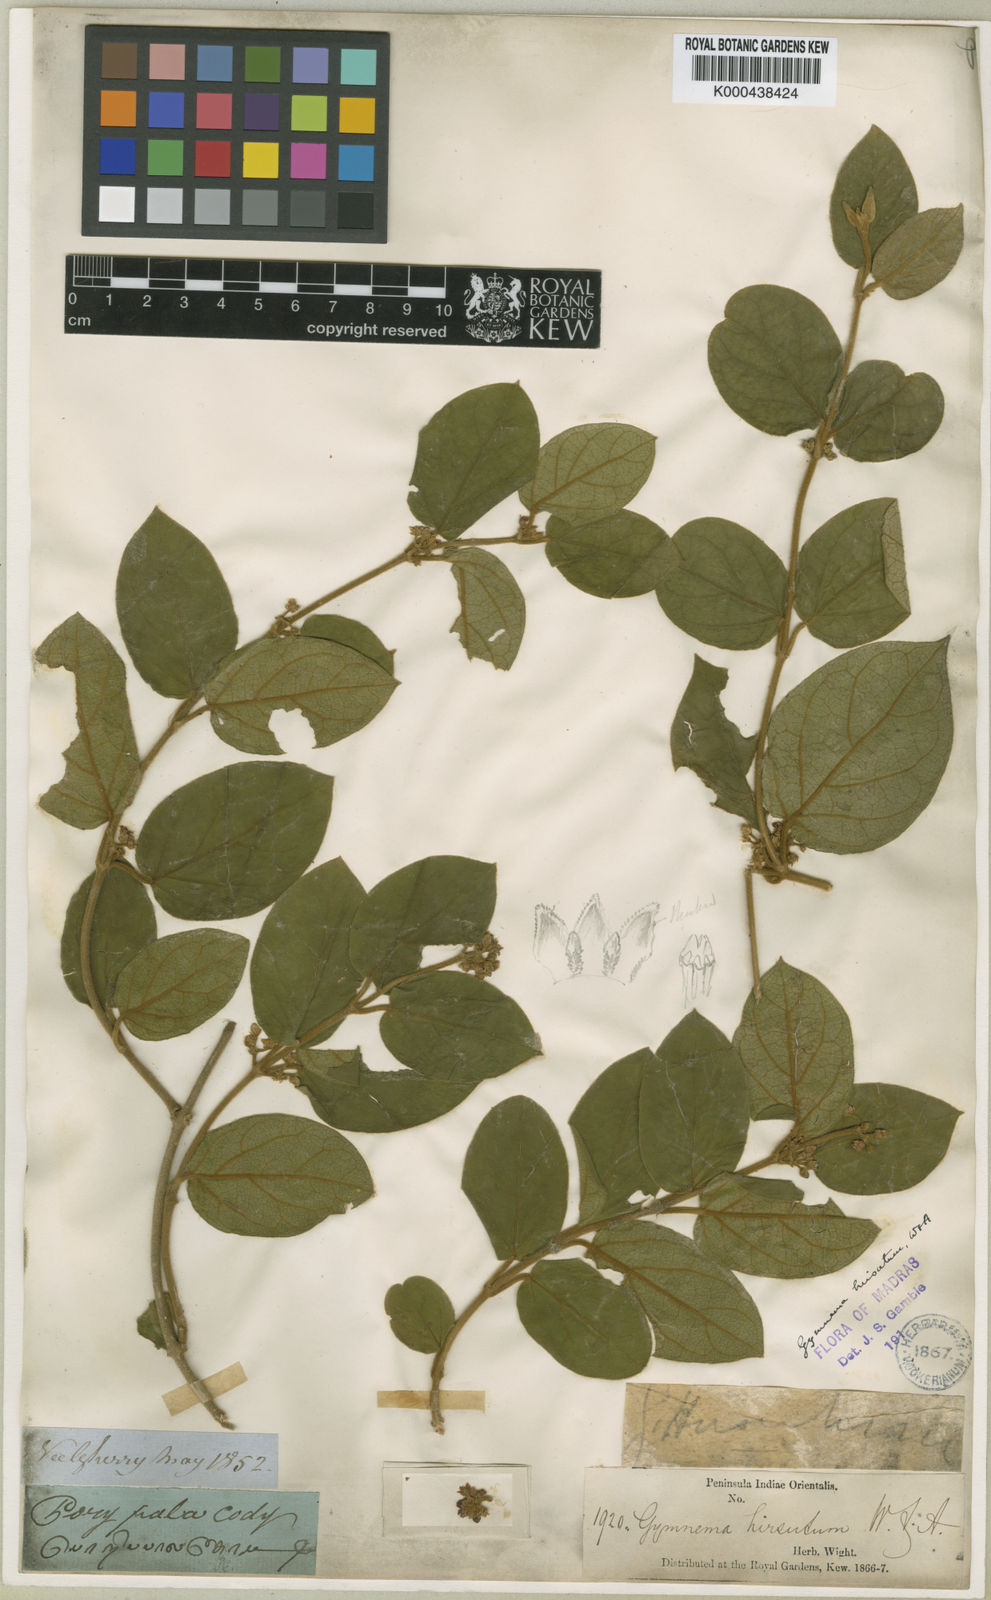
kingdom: Plantae
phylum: Tracheophyta
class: Magnoliopsida
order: Gentianales
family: Apocynaceae
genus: Gymnema
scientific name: Gymnema decaisneanum
